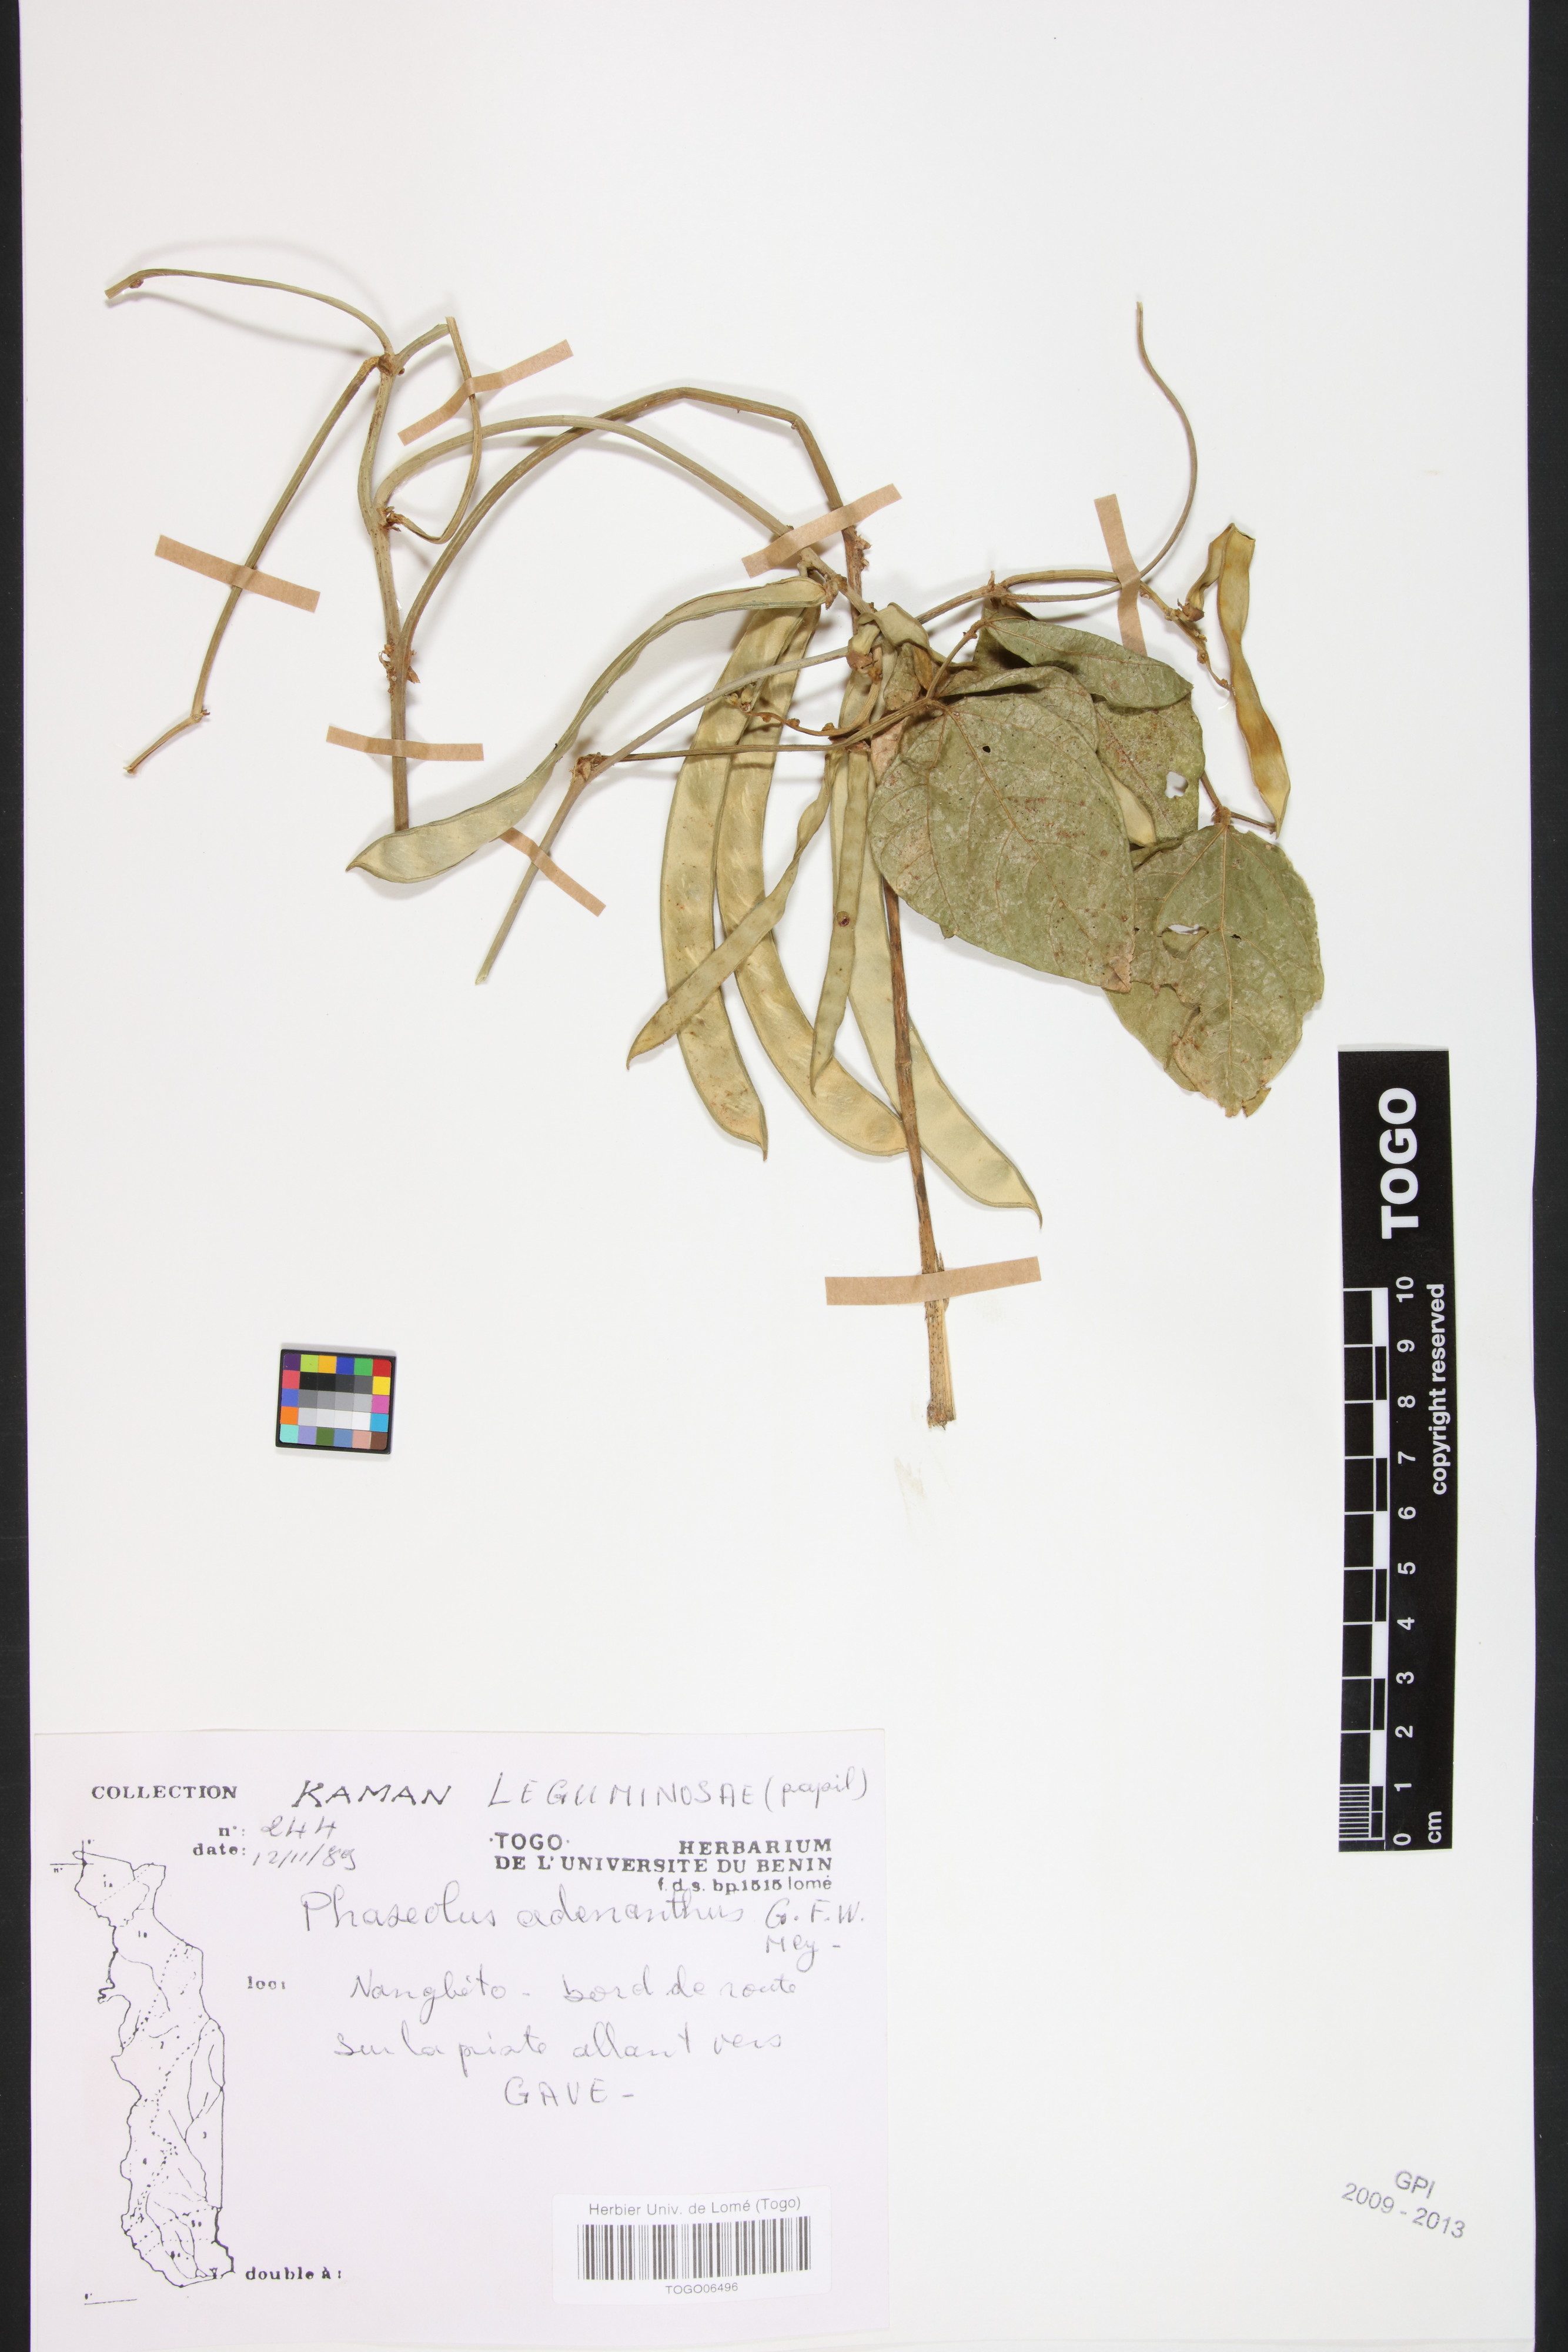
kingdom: Plantae
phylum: Tracheophyta
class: Magnoliopsida
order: Fabales
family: Fabaceae
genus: Leptospron
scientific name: Leptospron adenanthum
